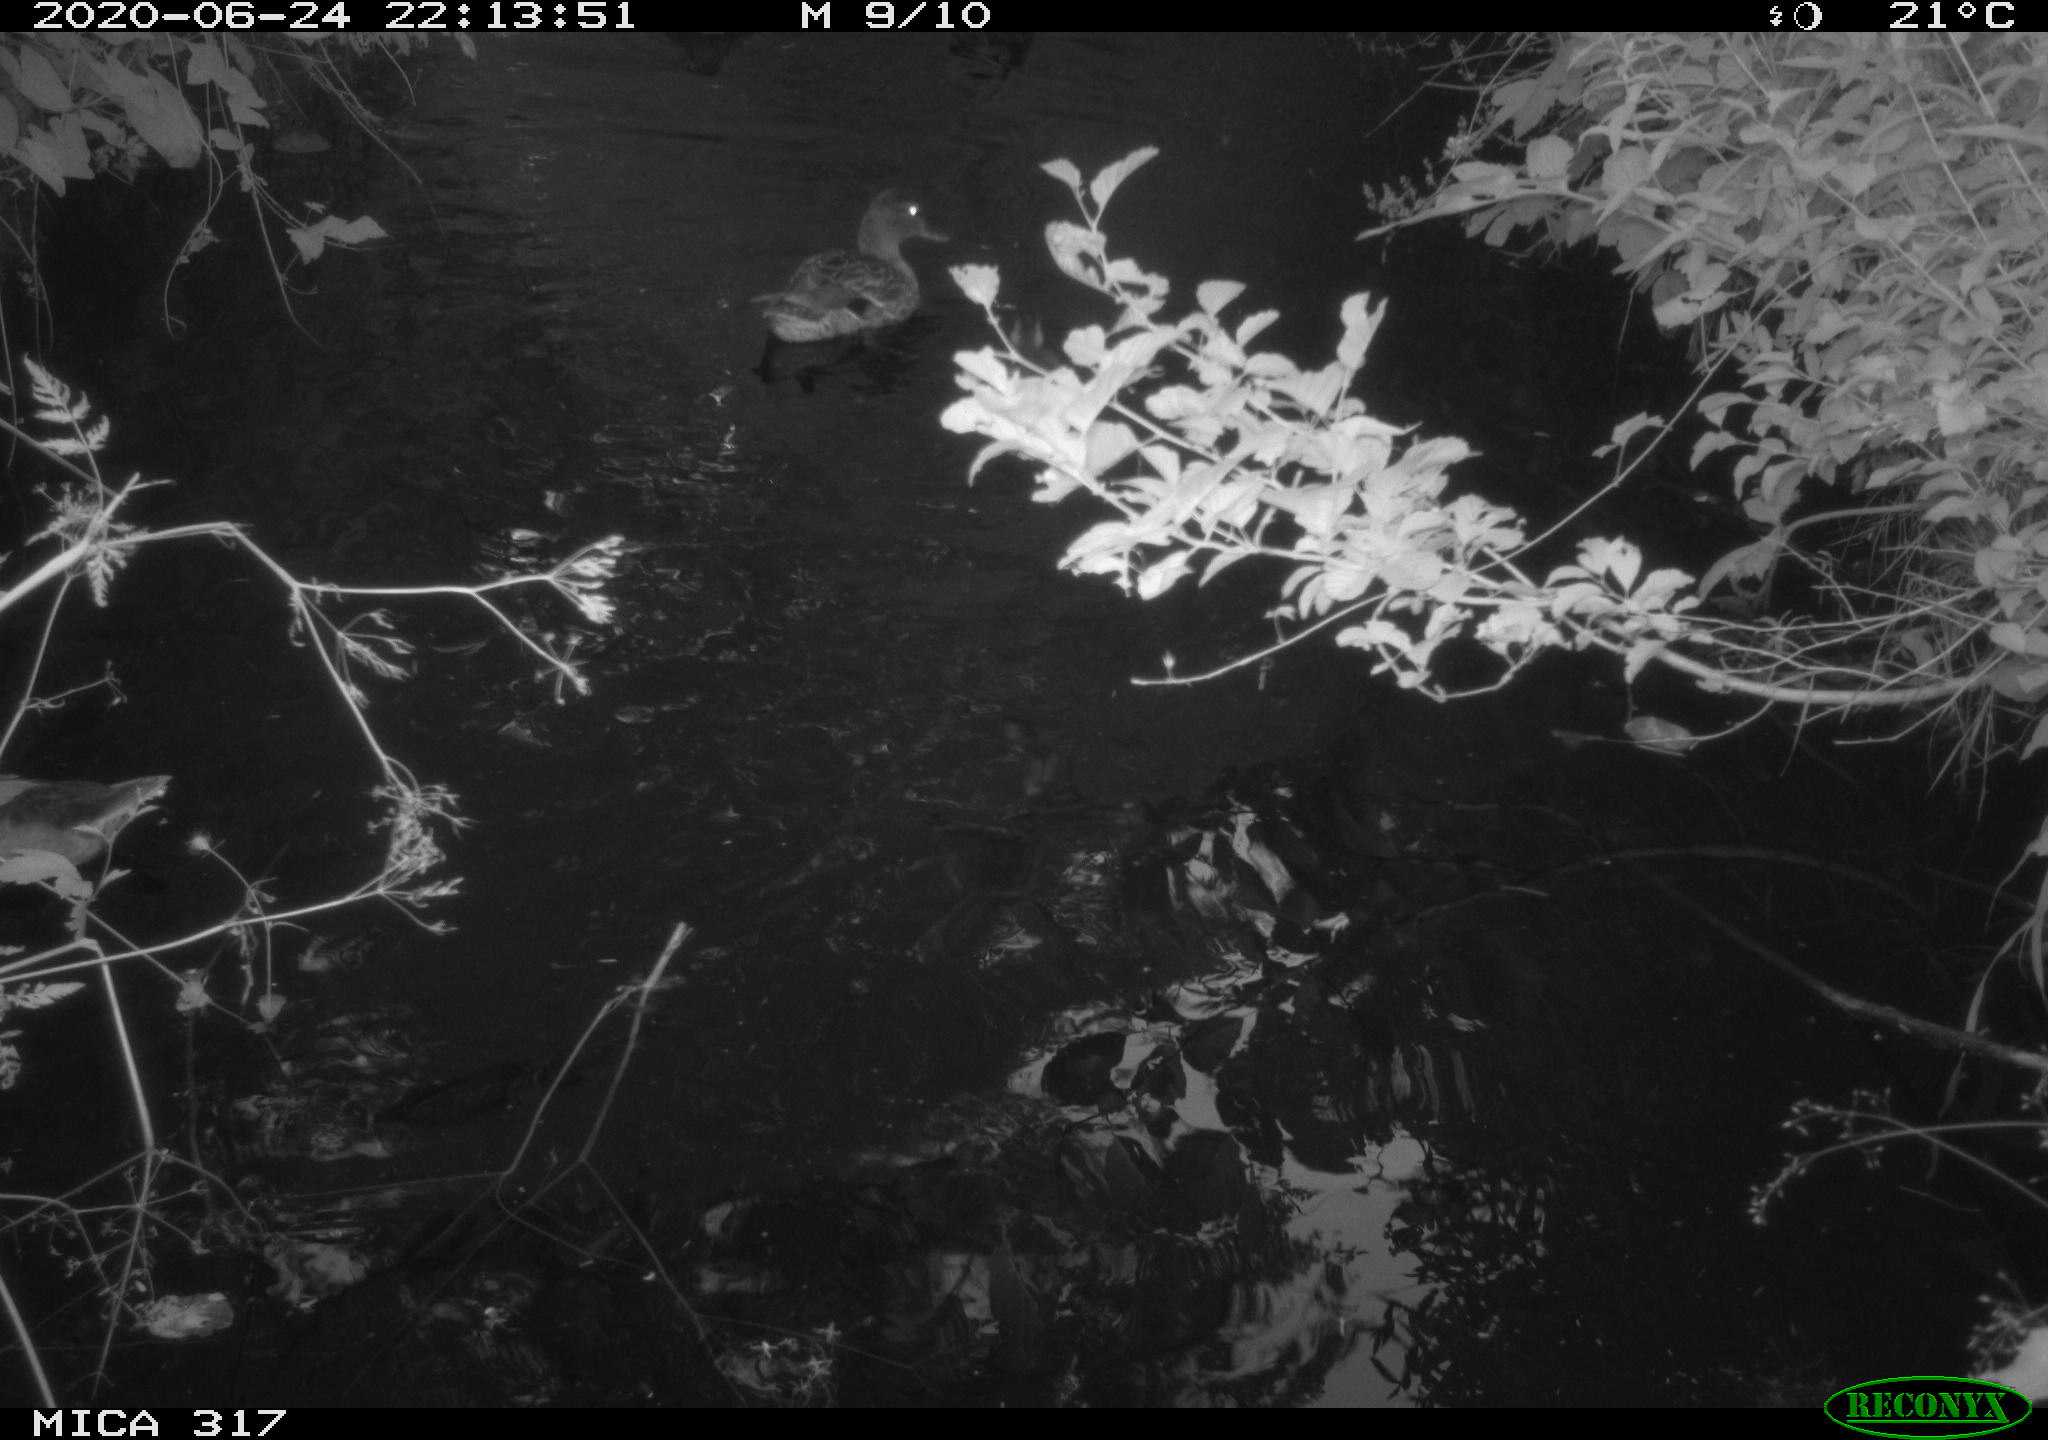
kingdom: Animalia
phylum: Chordata
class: Aves
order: Anseriformes
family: Anatidae
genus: Anas
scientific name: Anas platyrhynchos
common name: Mallard
